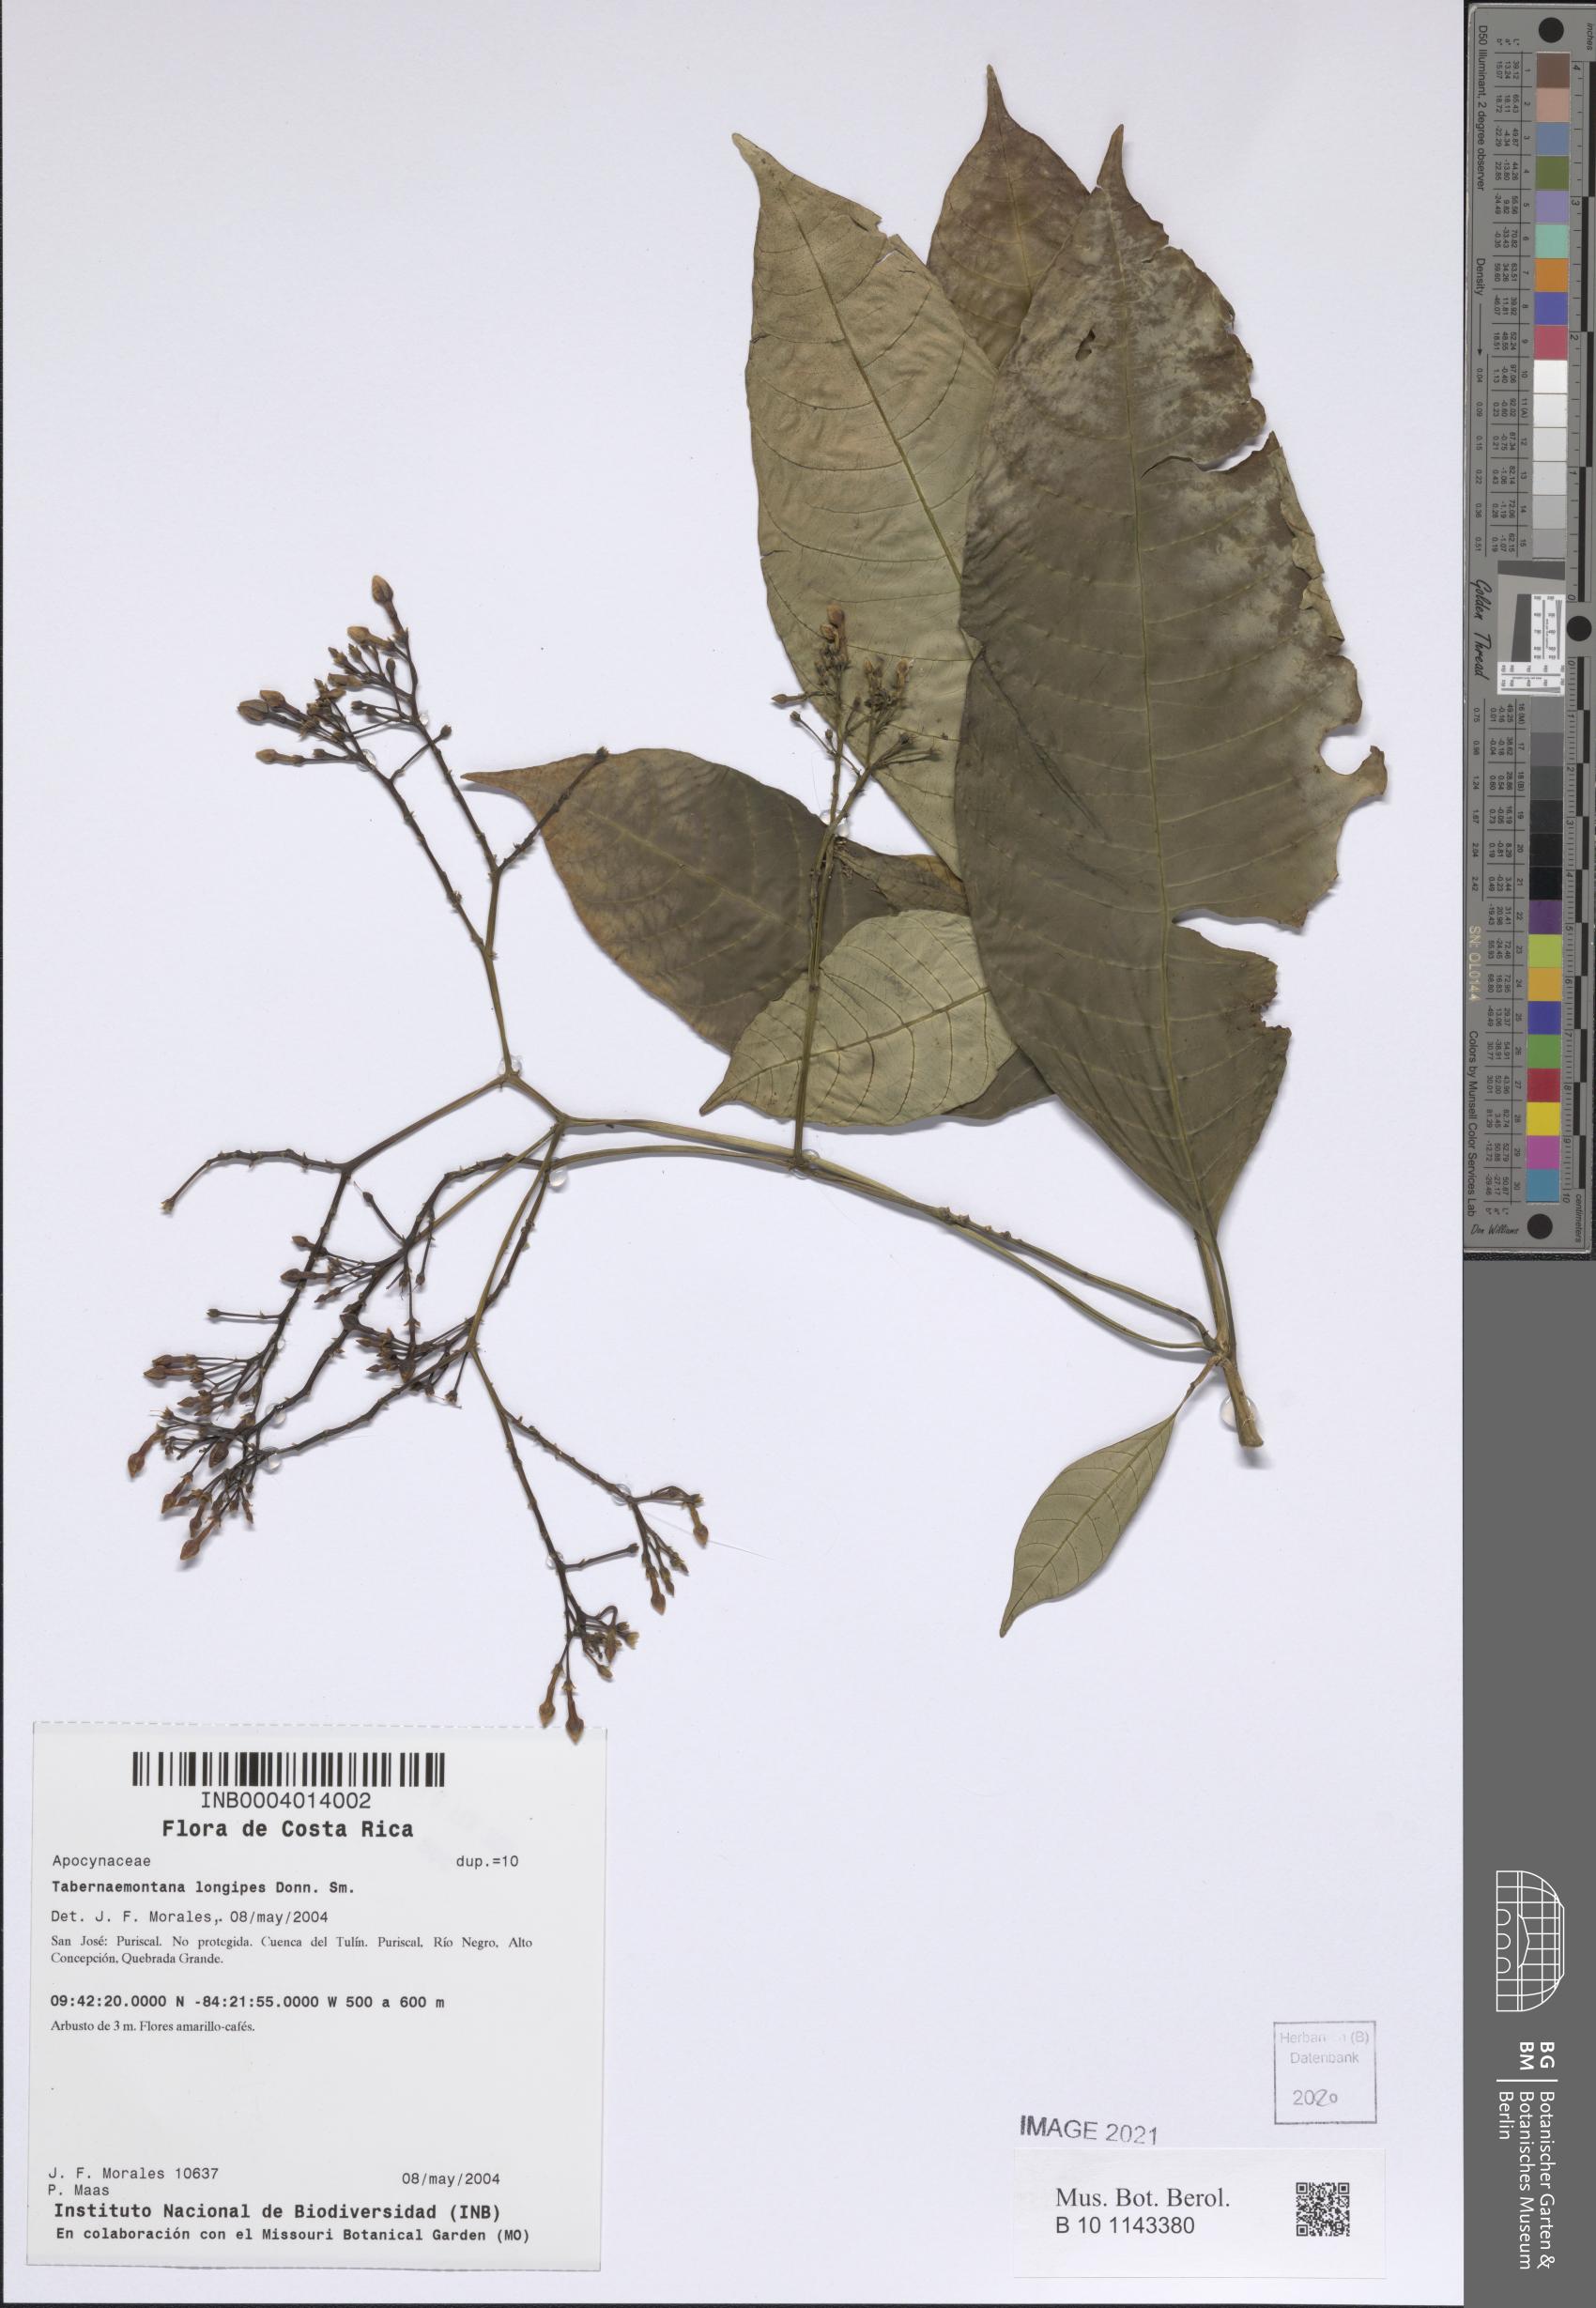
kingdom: Plantae
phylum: Tracheophyta
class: Magnoliopsida
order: Gentianales
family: Apocynaceae
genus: Tabernaemontana
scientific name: Tabernaemontana longipes
